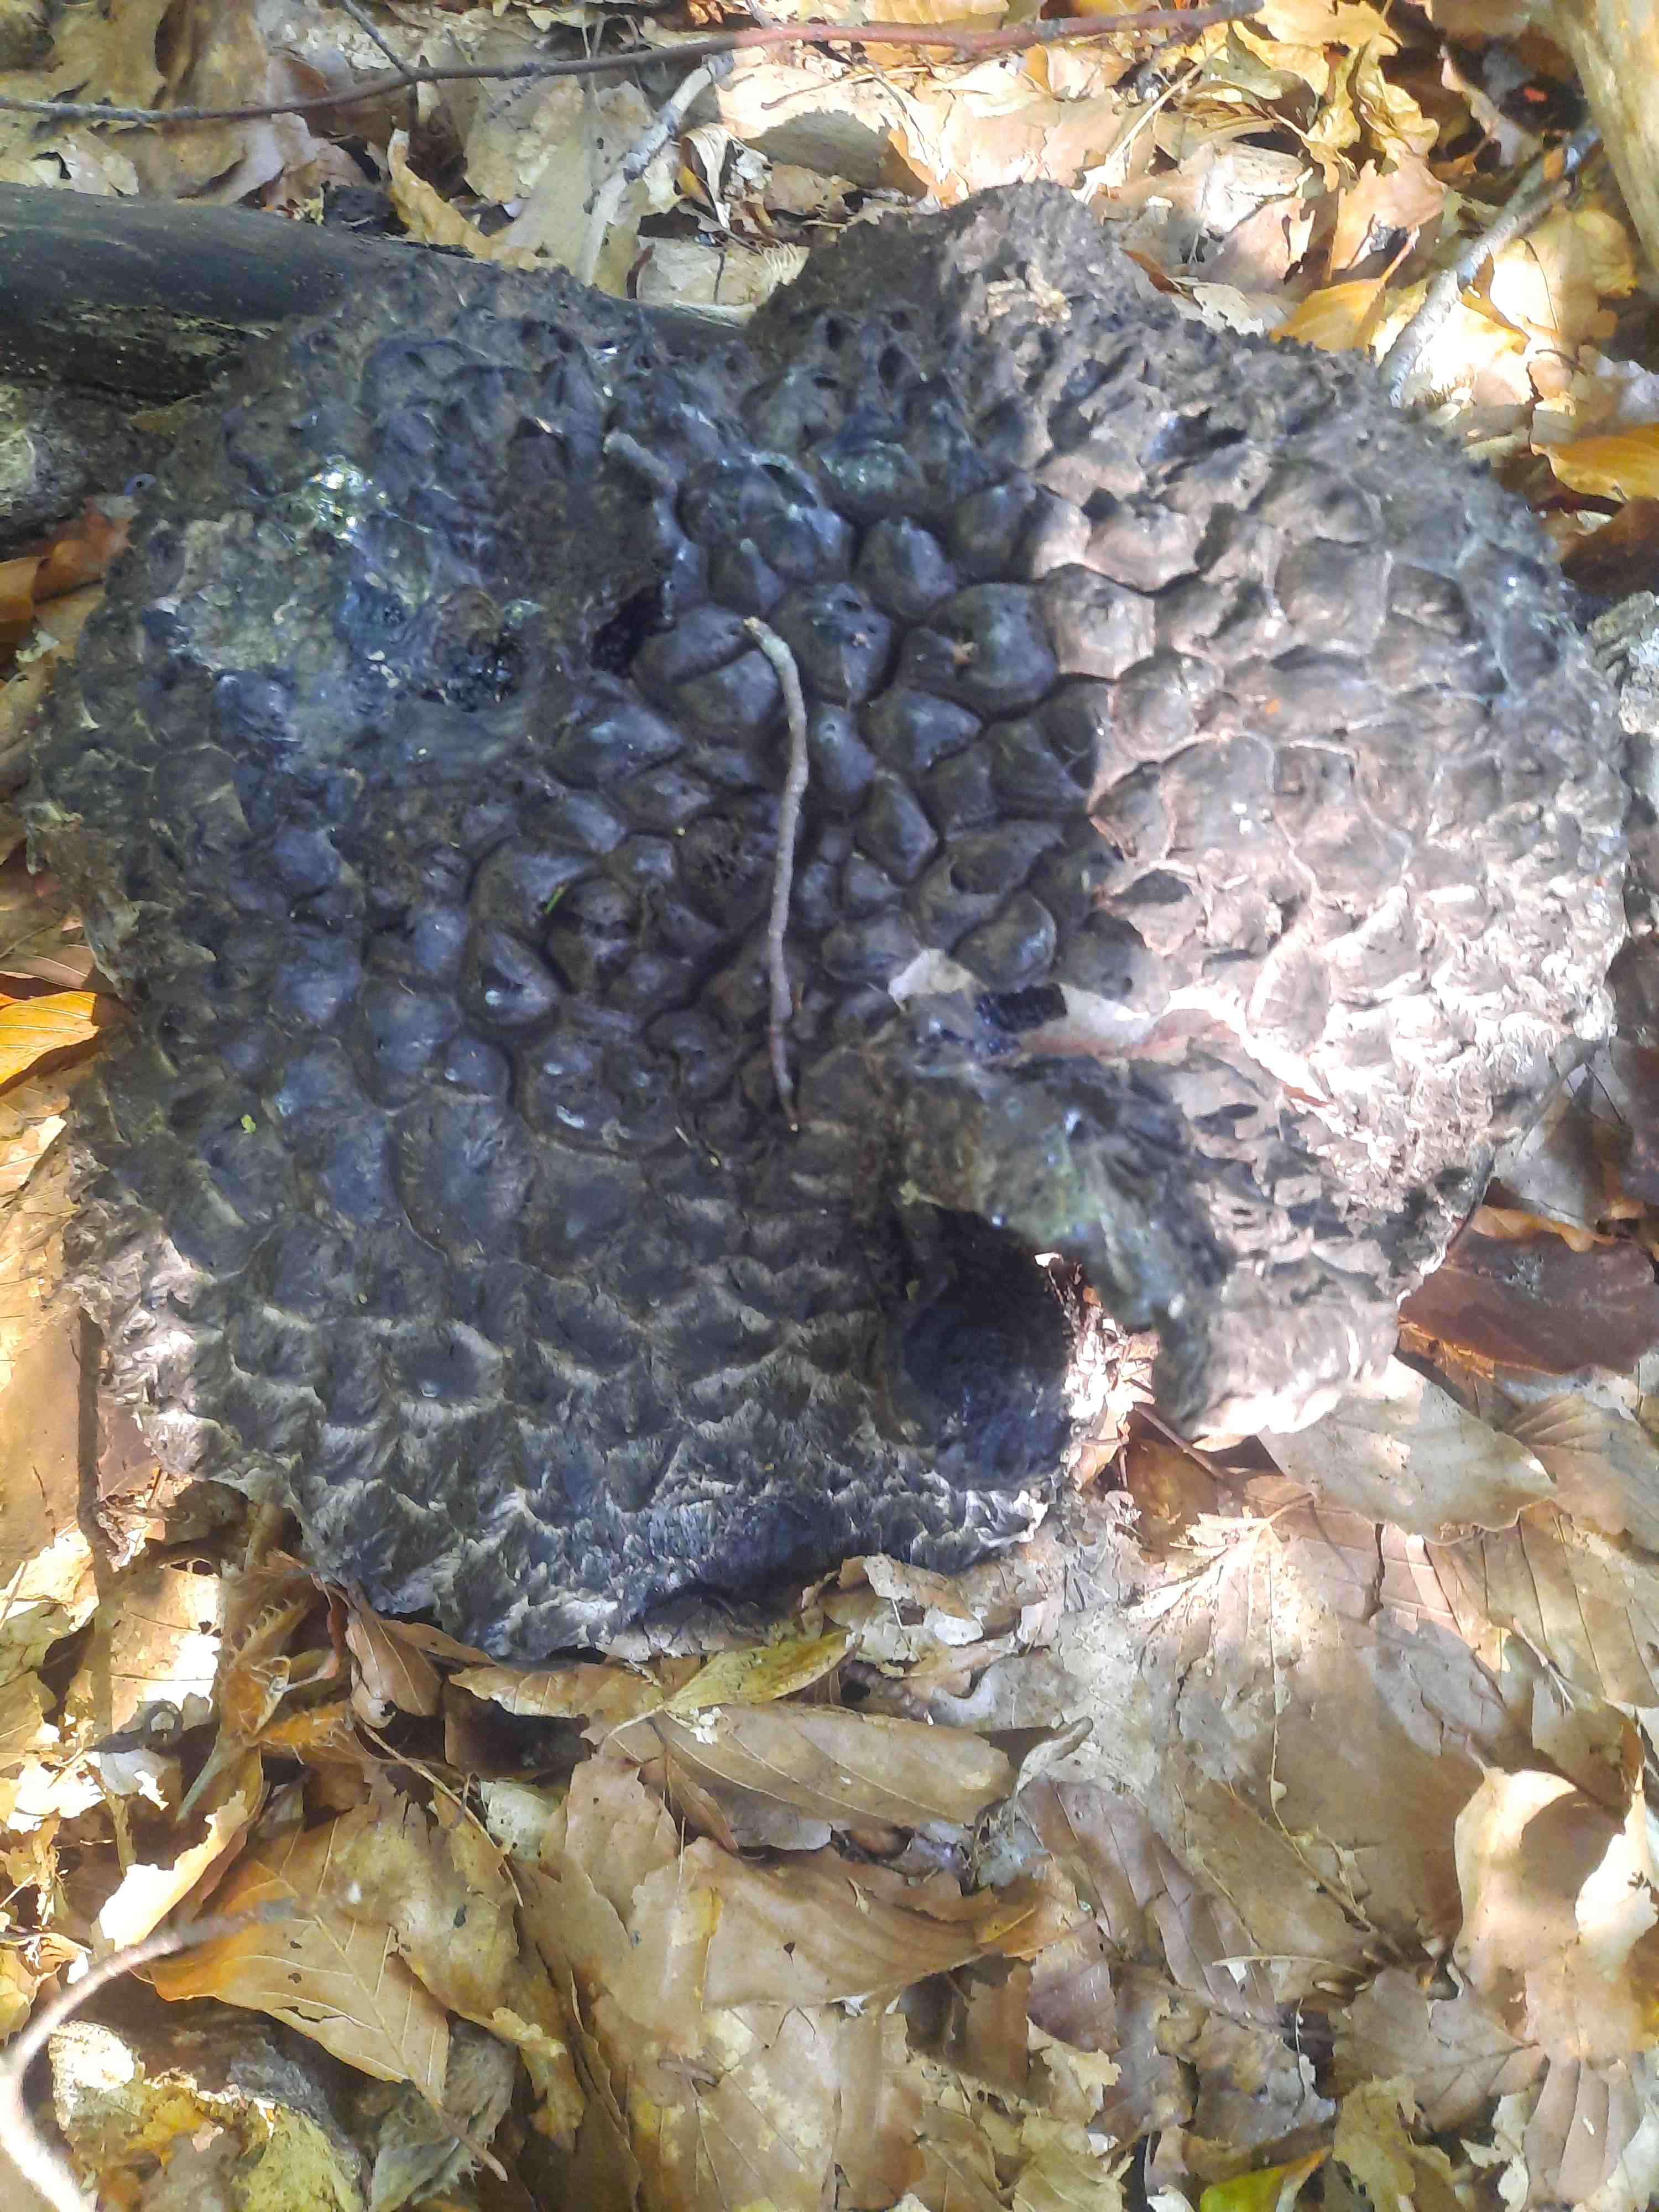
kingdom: Fungi
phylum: Basidiomycota
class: Agaricomycetes
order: Boletales
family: Boletaceae
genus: Strobilomyces
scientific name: Strobilomyces strobilaceus
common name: koglerørhat
